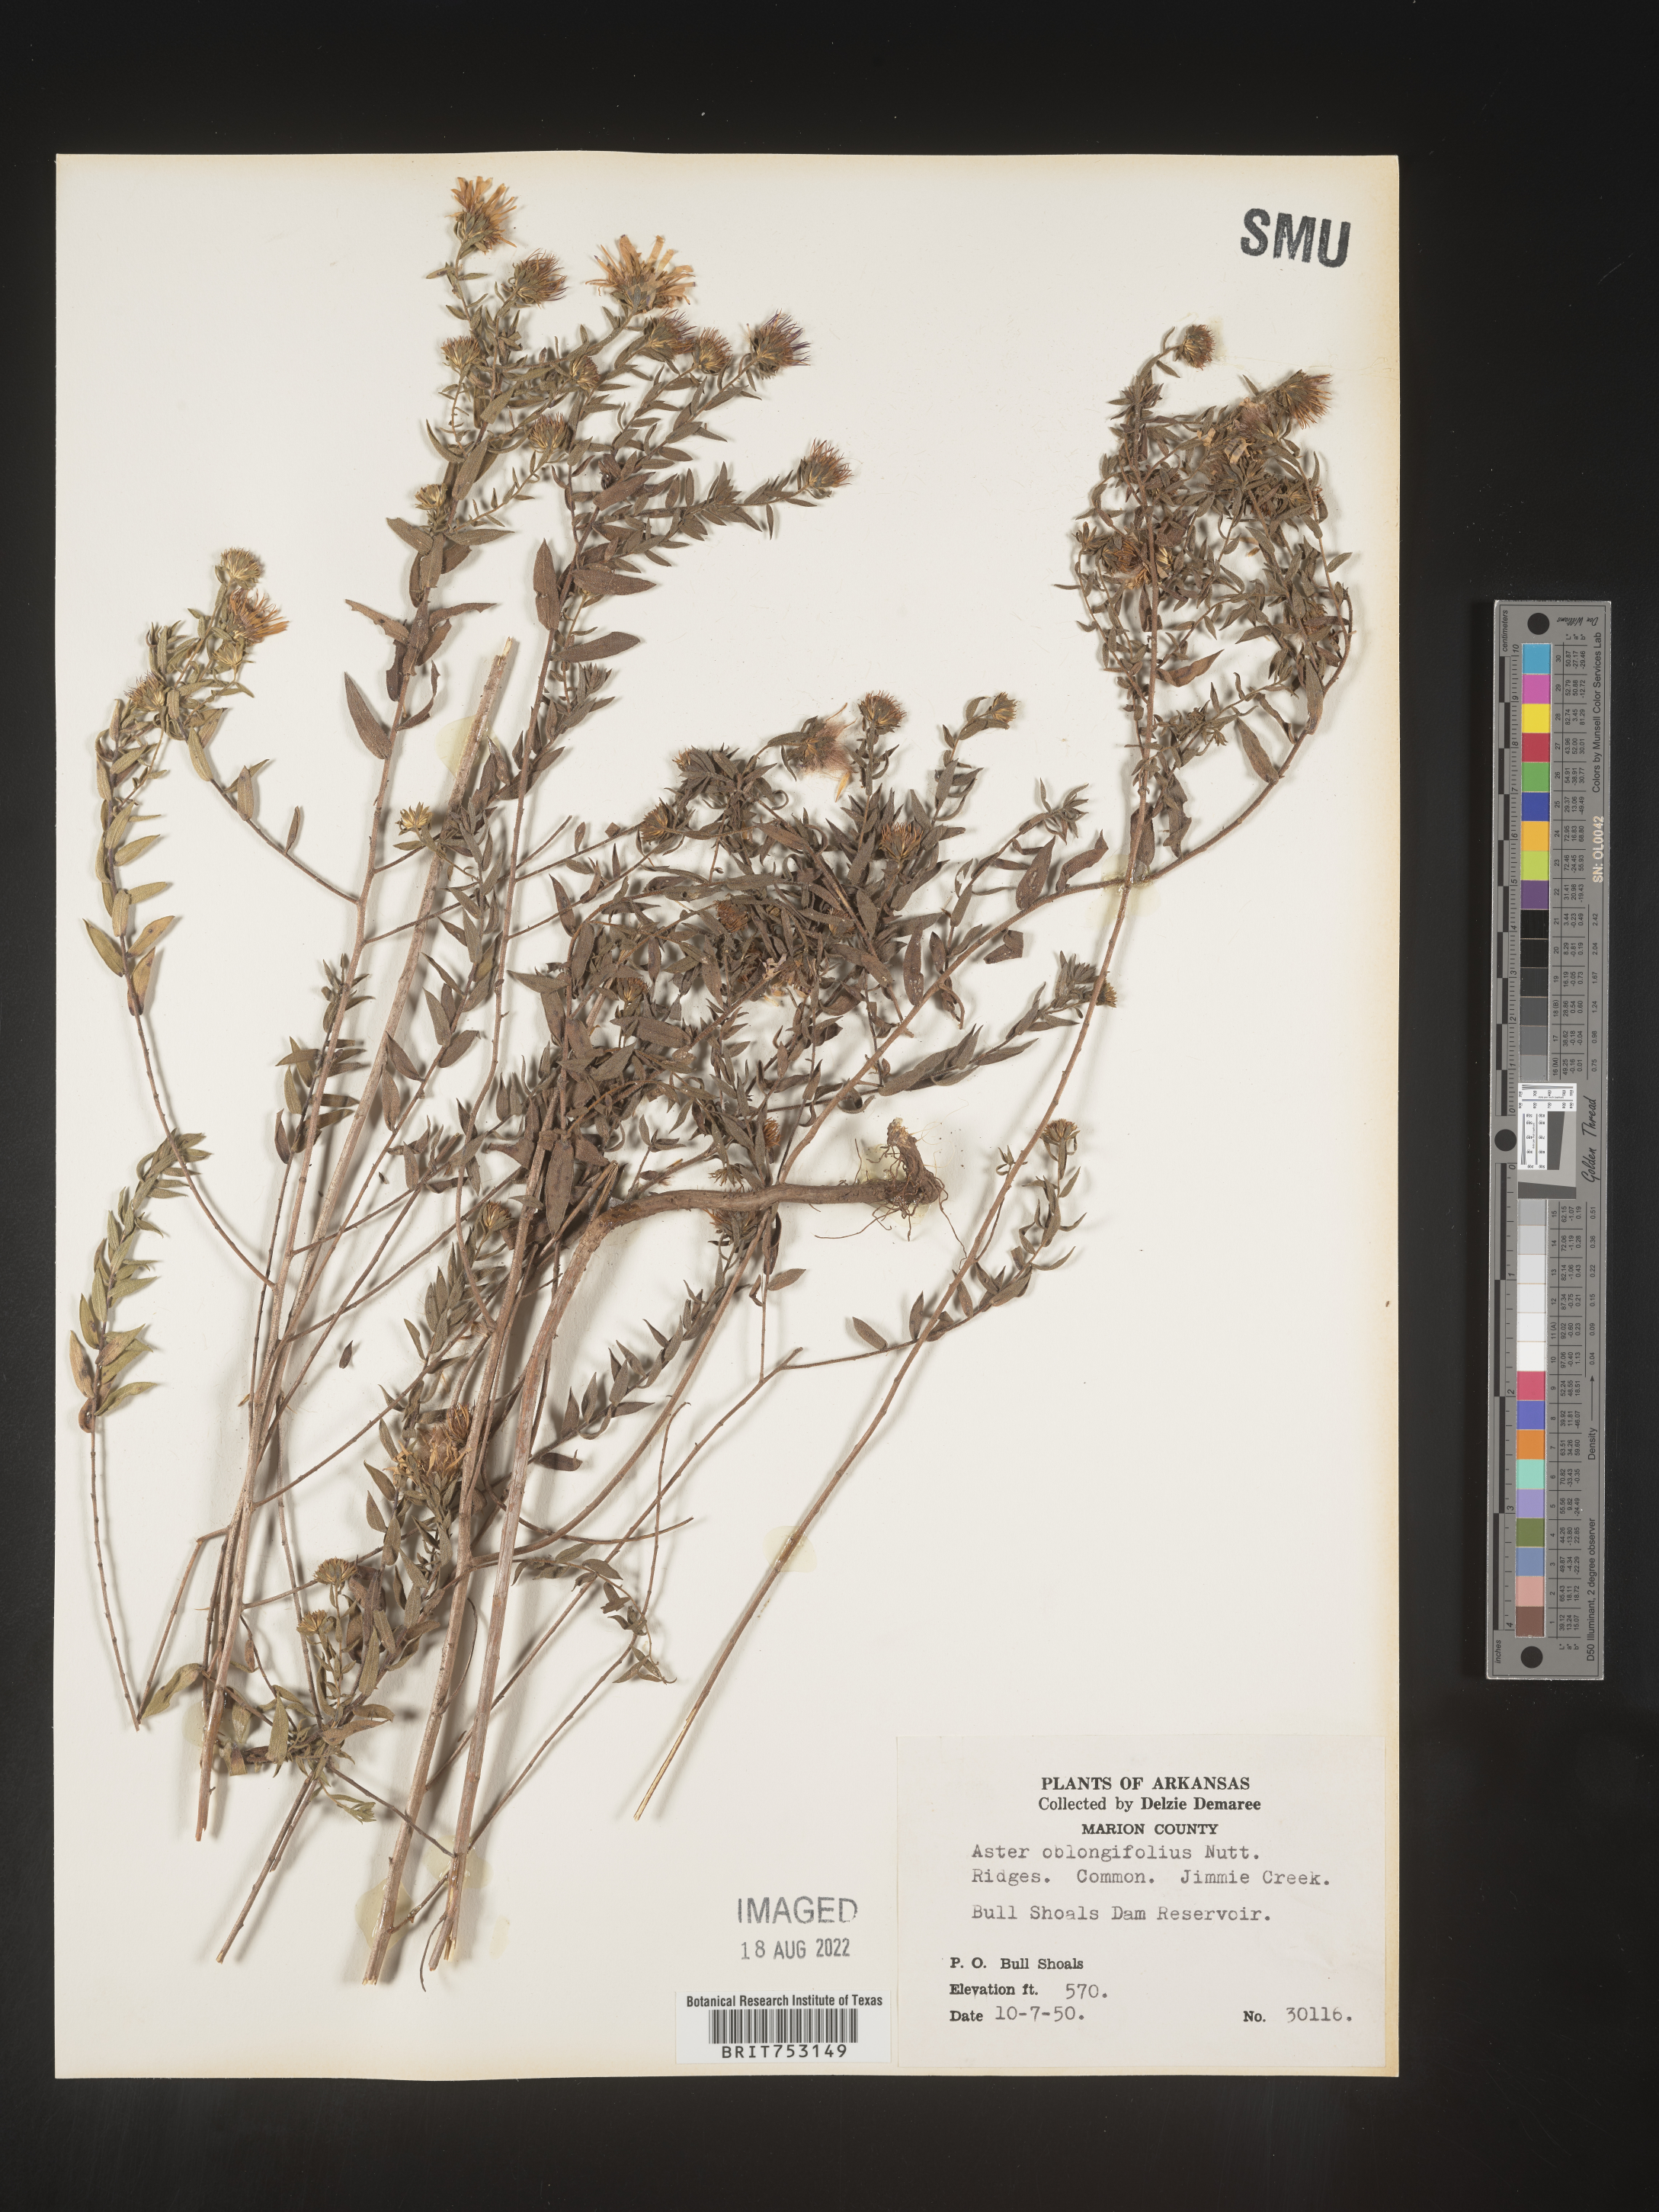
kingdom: Plantae
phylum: Tracheophyta
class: Magnoliopsida
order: Asterales
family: Asteraceae
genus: Symphyotrichum
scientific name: Symphyotrichum oblongifolium
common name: Aromatic aster
